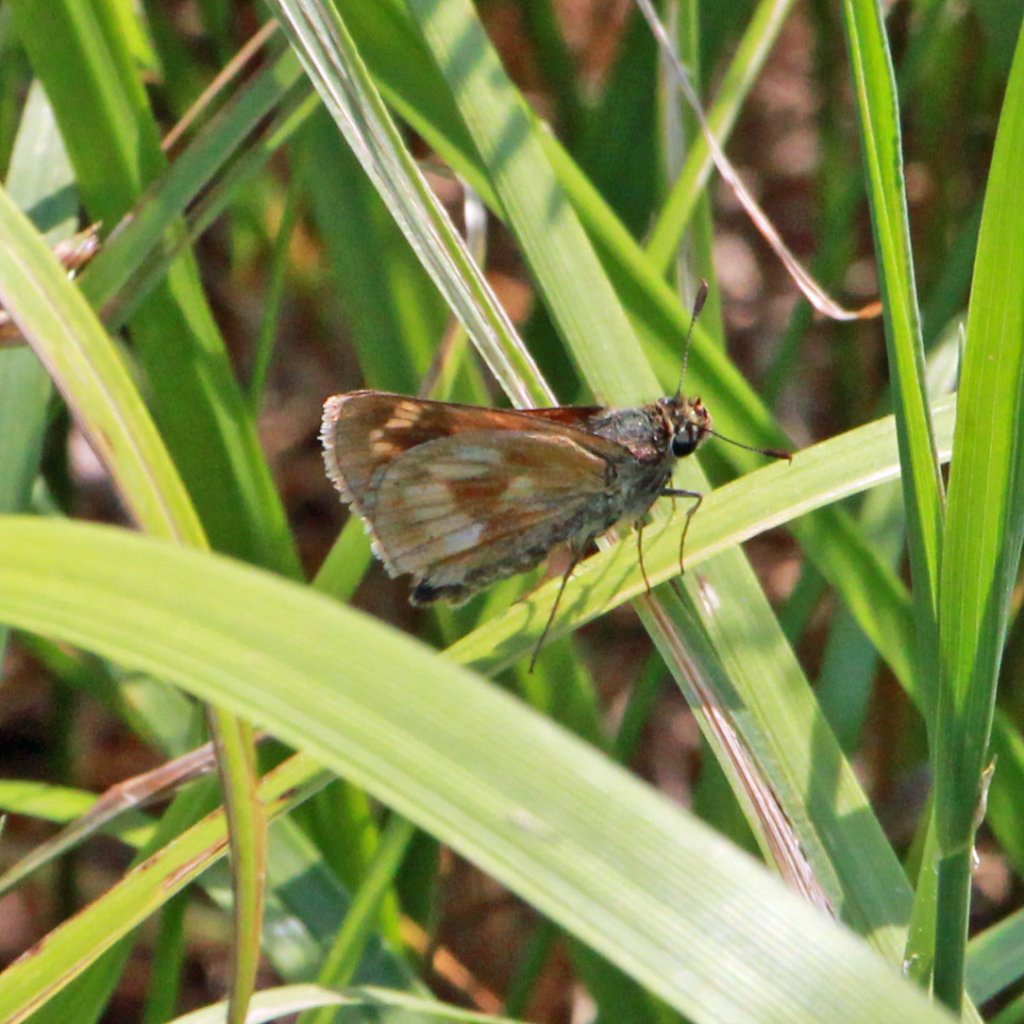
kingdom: Animalia
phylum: Arthropoda
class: Insecta
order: Lepidoptera
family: Hesperiidae
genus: Polites
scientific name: Polites
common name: Long Dash Skipper
